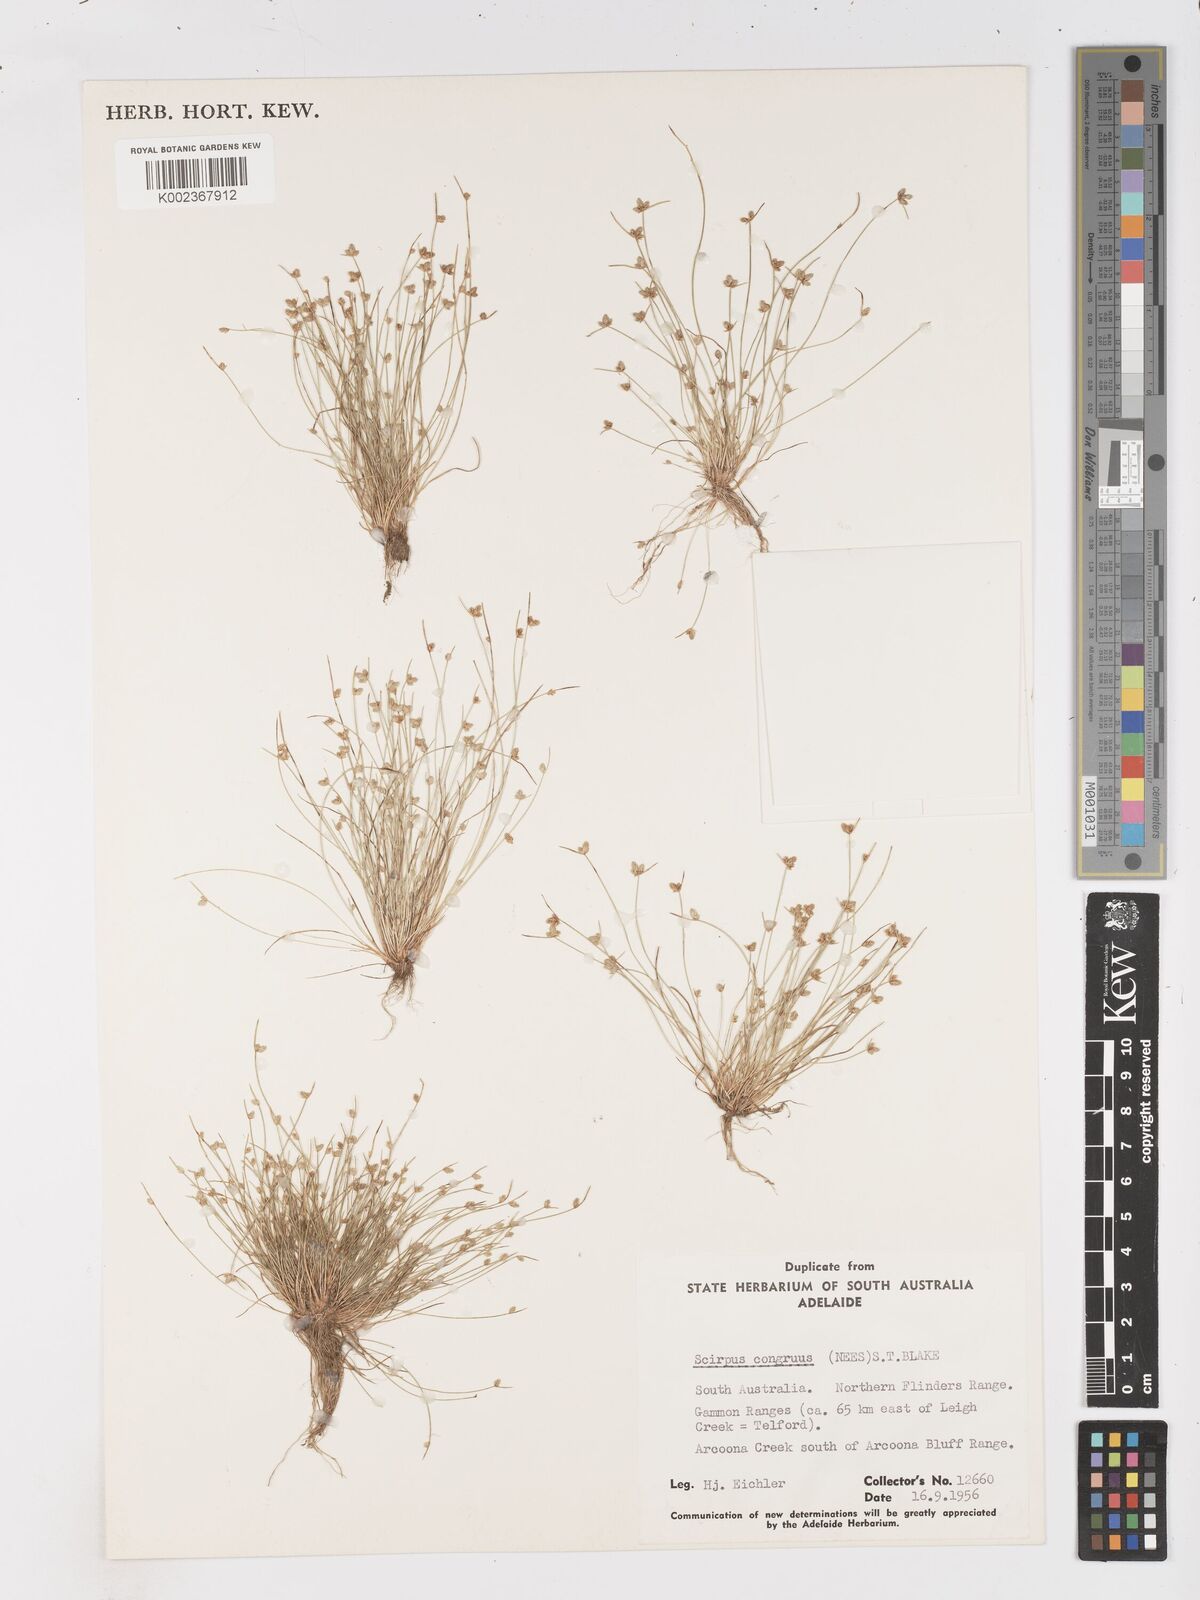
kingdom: Plantae
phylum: Tracheophyta
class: Liliopsida
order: Poales
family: Cyperaceae
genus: Isolepis
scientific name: Isolepis congrua
